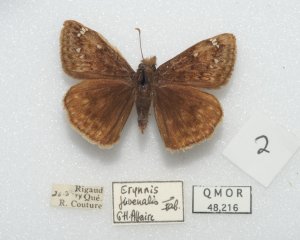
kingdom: Animalia
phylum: Arthropoda
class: Insecta
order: Lepidoptera
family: Hesperiidae
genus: Gesta
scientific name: Gesta
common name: Juvenal's Duskywing
